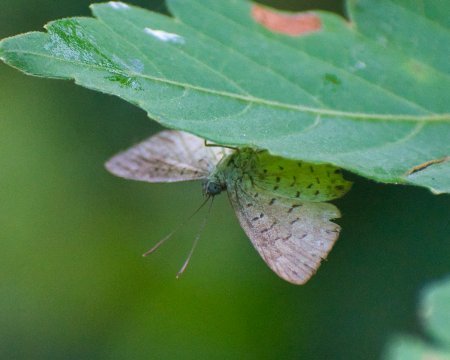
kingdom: Animalia
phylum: Arthropoda
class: Insecta
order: Lepidoptera
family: Riodinidae
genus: Polystichtis
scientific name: Polystichtis lucianus
